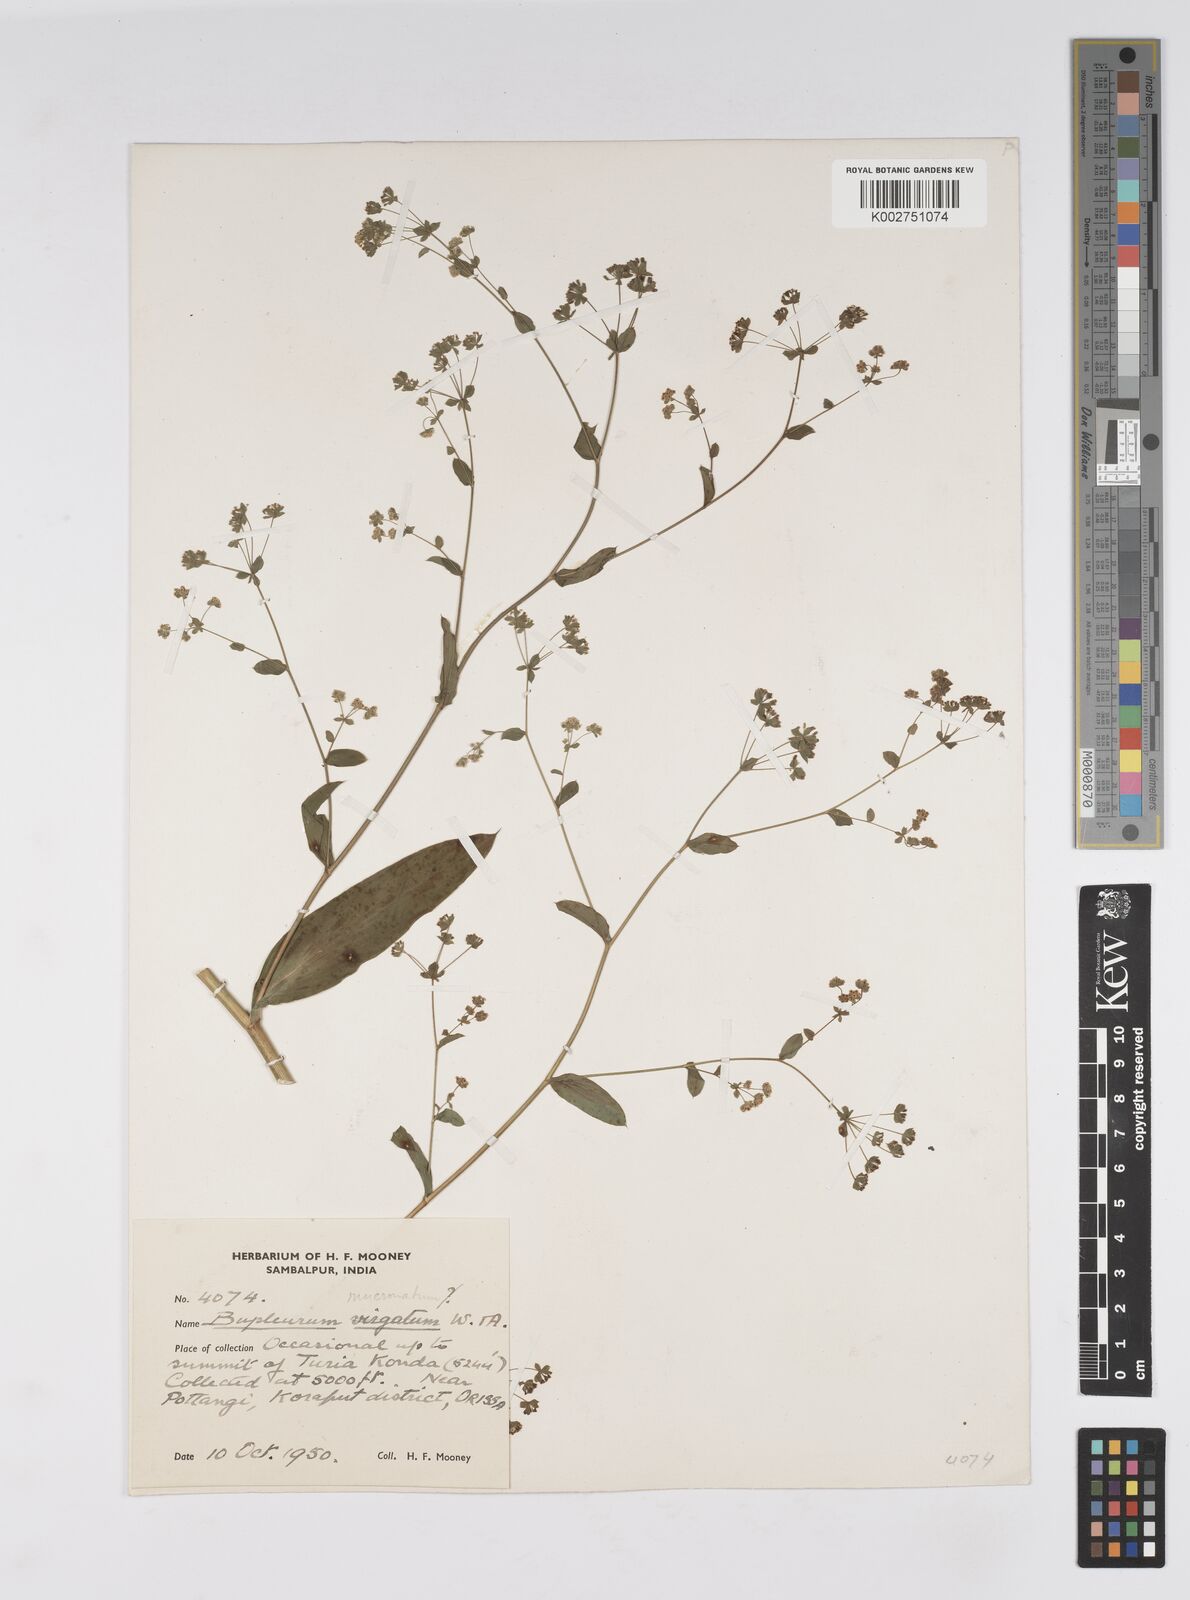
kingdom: Plantae
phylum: Tracheophyta
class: Magnoliopsida
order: Apiales
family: Apiaceae
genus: Bupleurum
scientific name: Bupleurum ramosissimum
